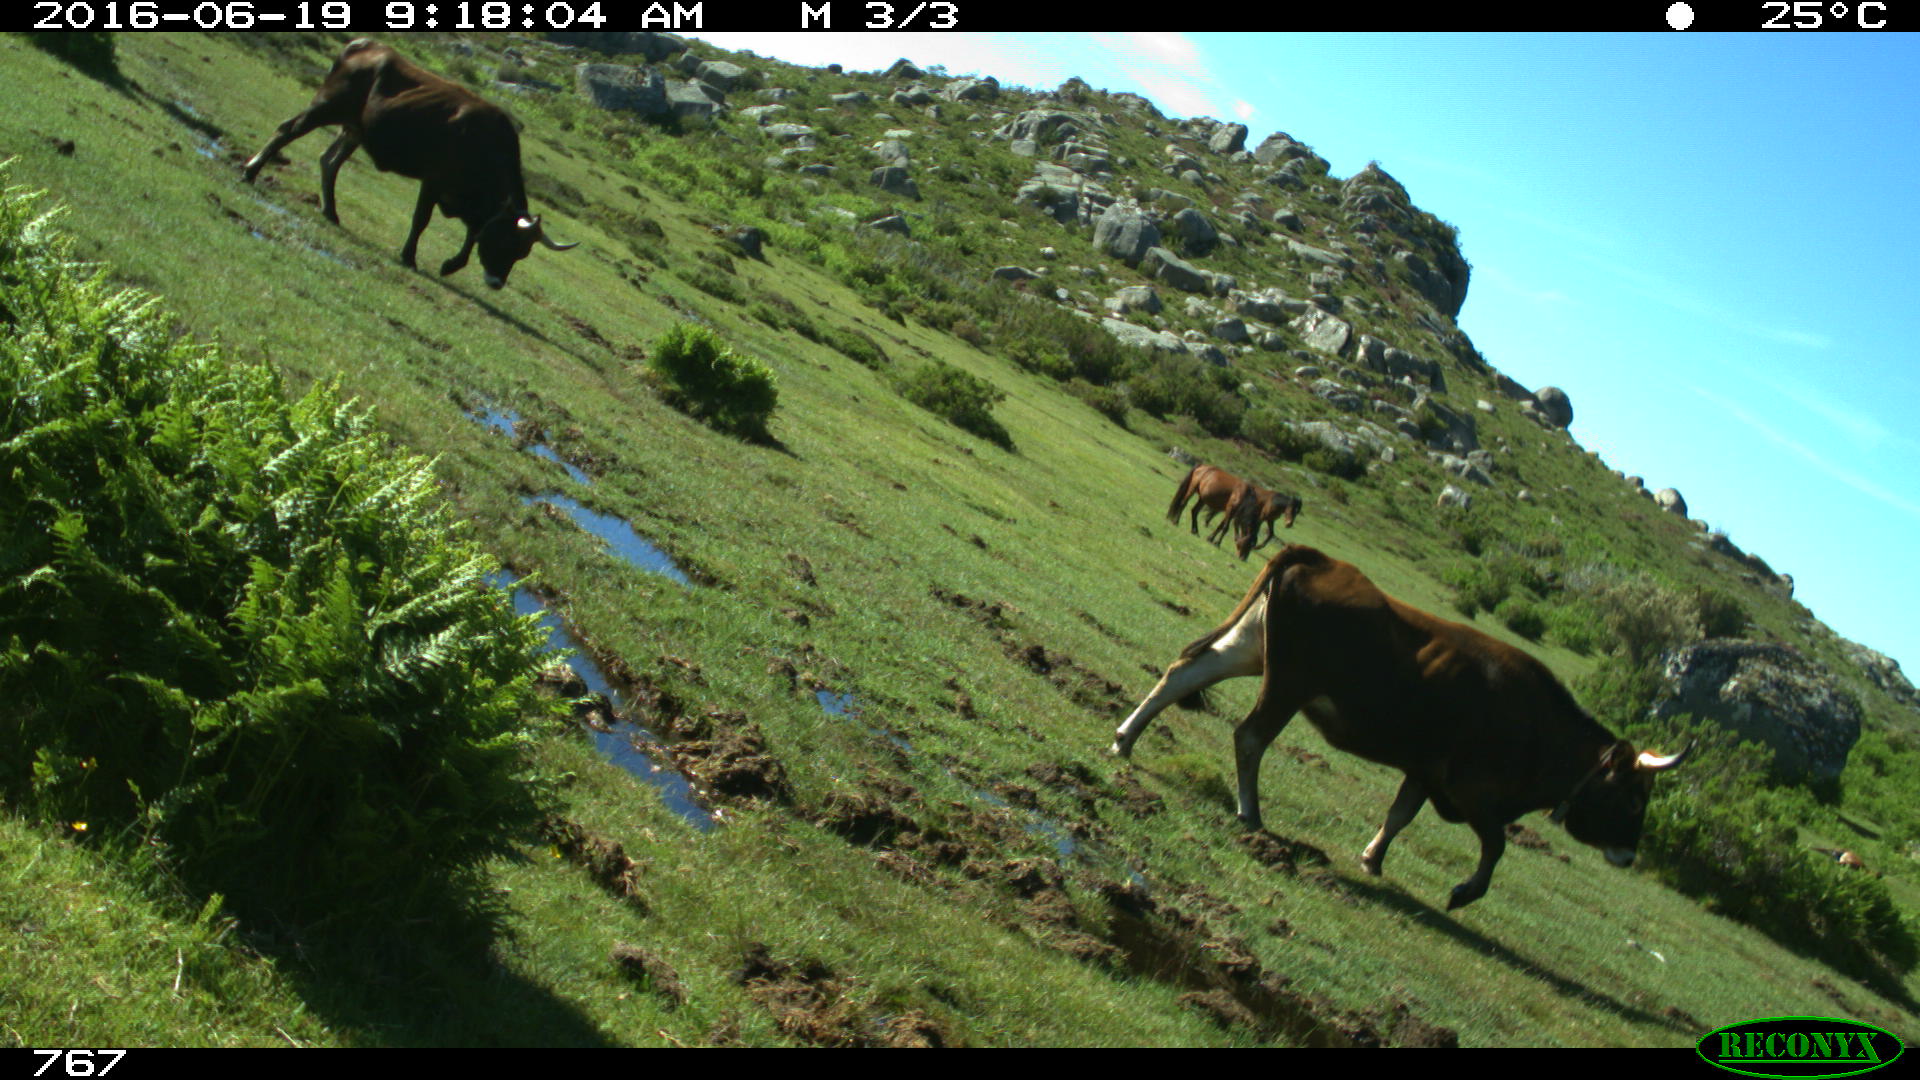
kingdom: Animalia
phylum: Chordata
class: Mammalia
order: Artiodactyla
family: Bovidae
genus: Bos
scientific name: Bos taurus
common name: Domesticated cattle
